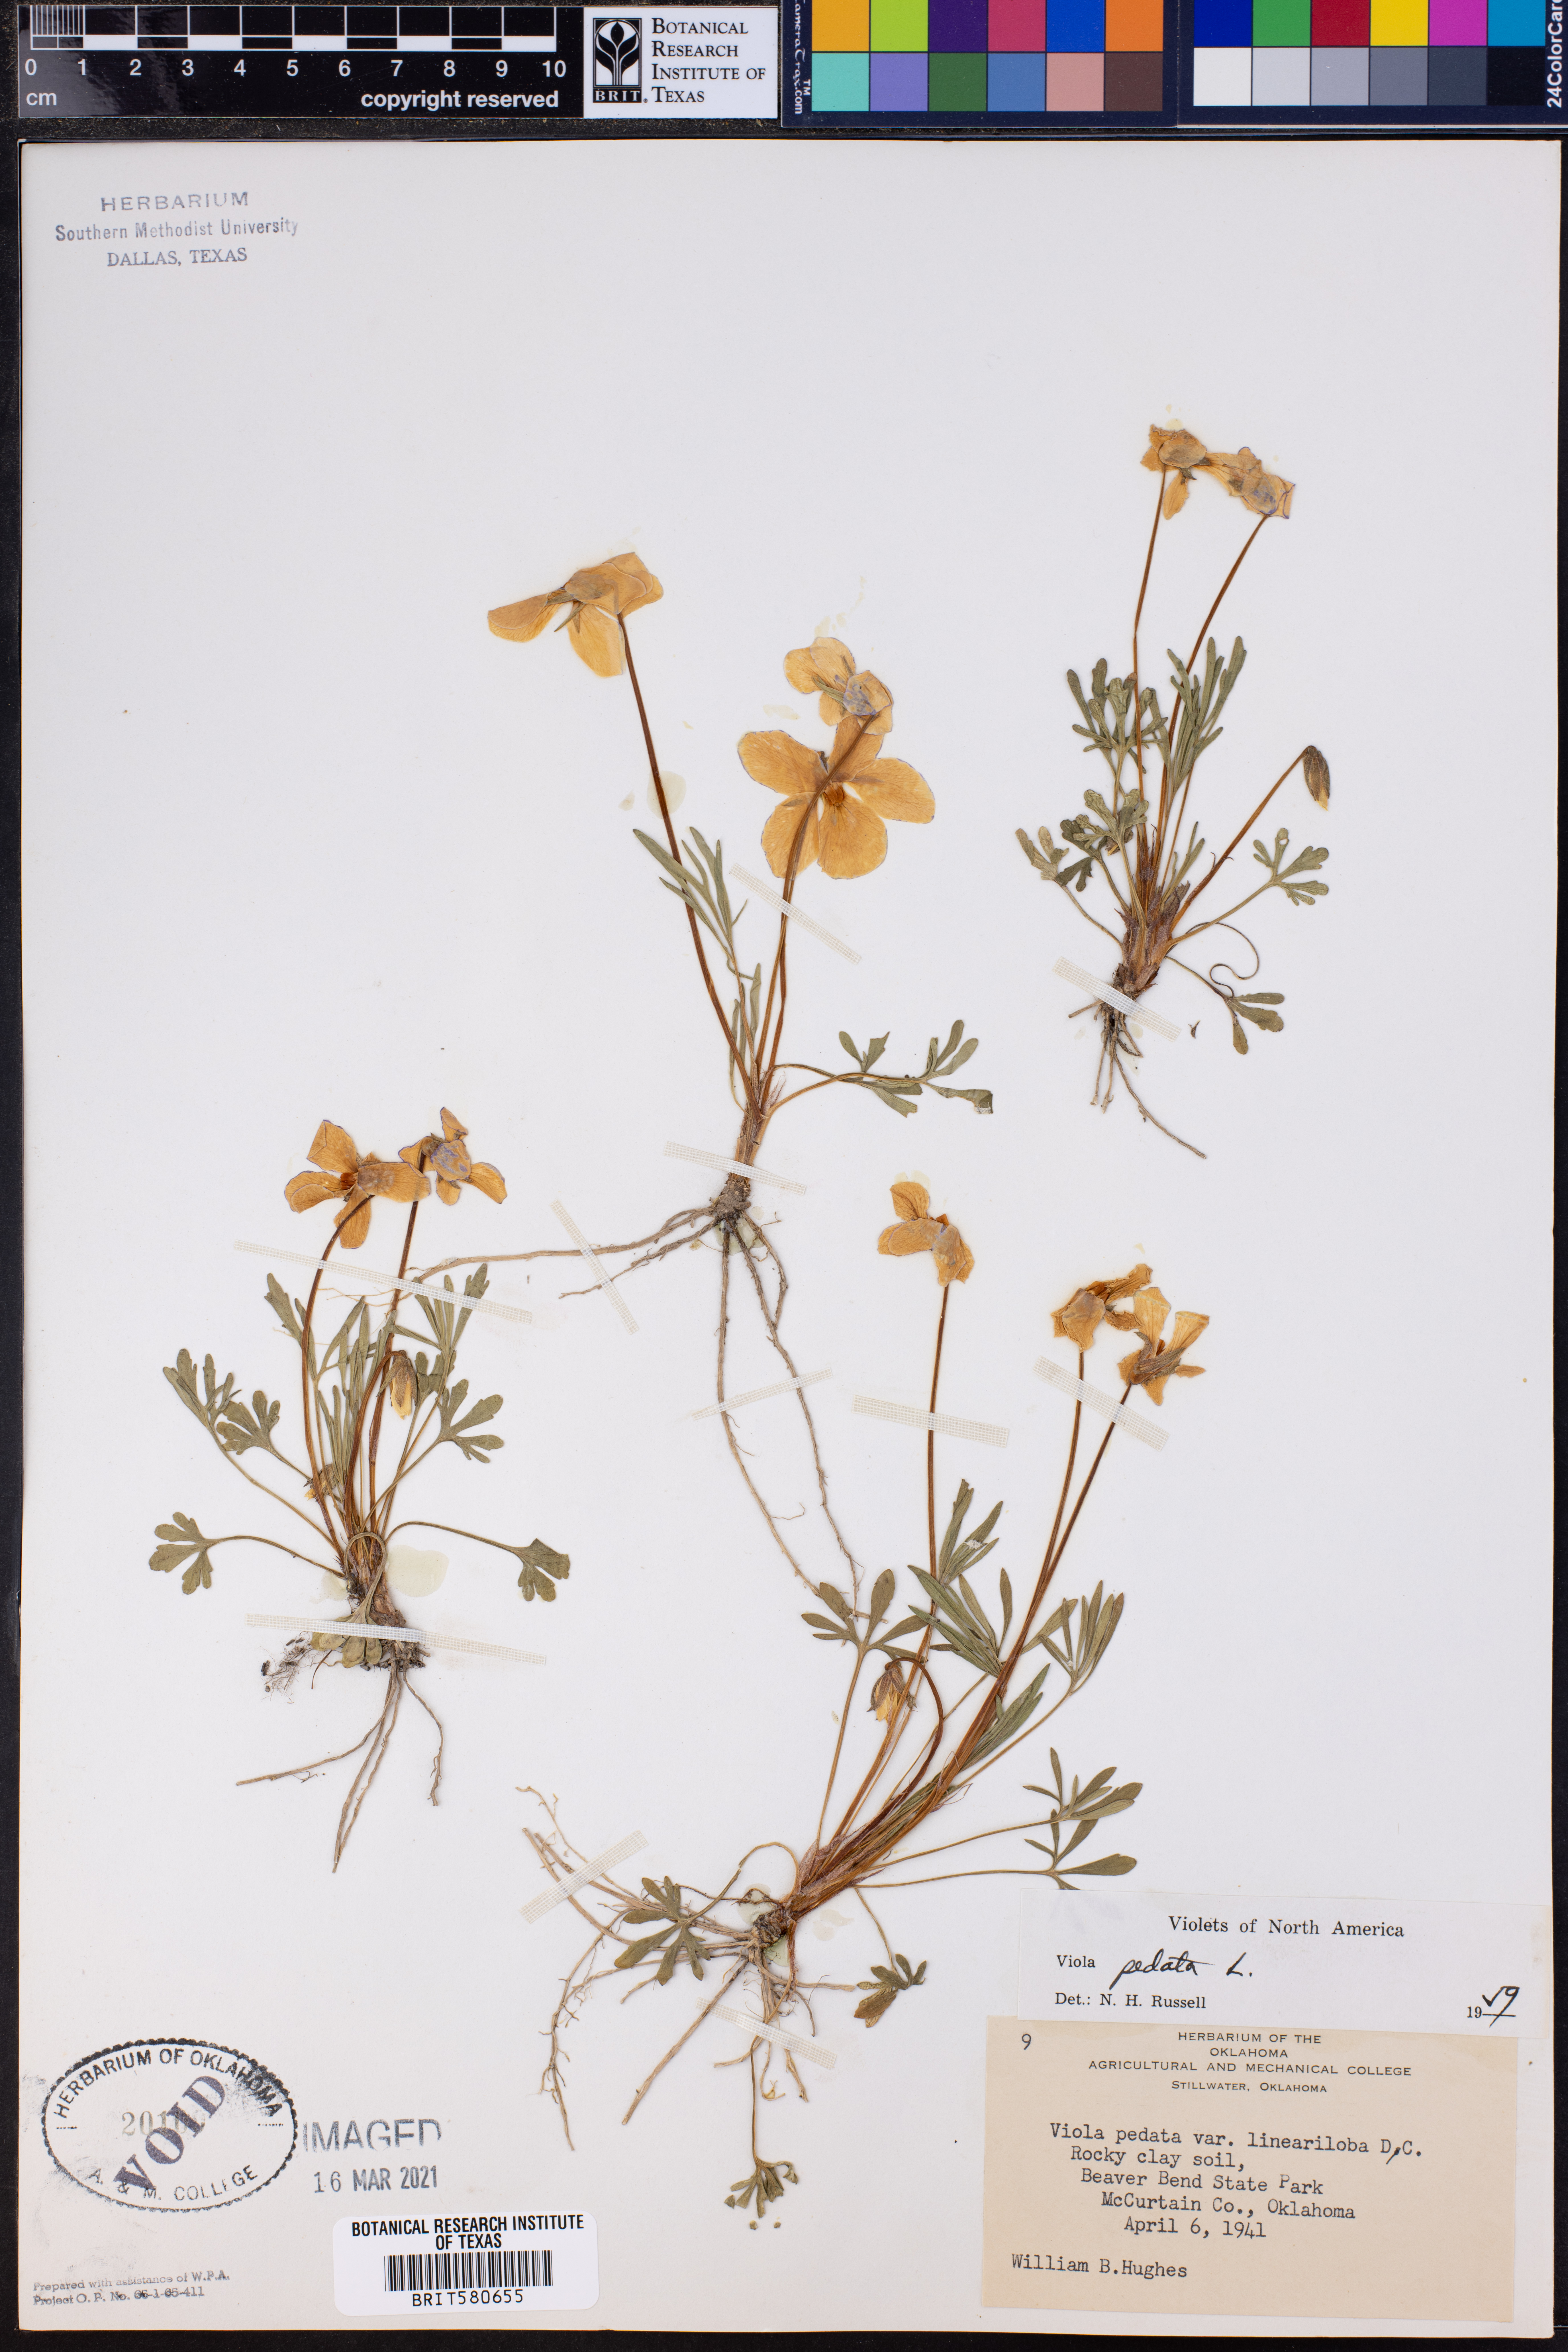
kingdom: Plantae
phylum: Tracheophyta
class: Magnoliopsida
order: Malpighiales
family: Violaceae
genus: Viola
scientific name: Viola pedata
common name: Pansy violet
